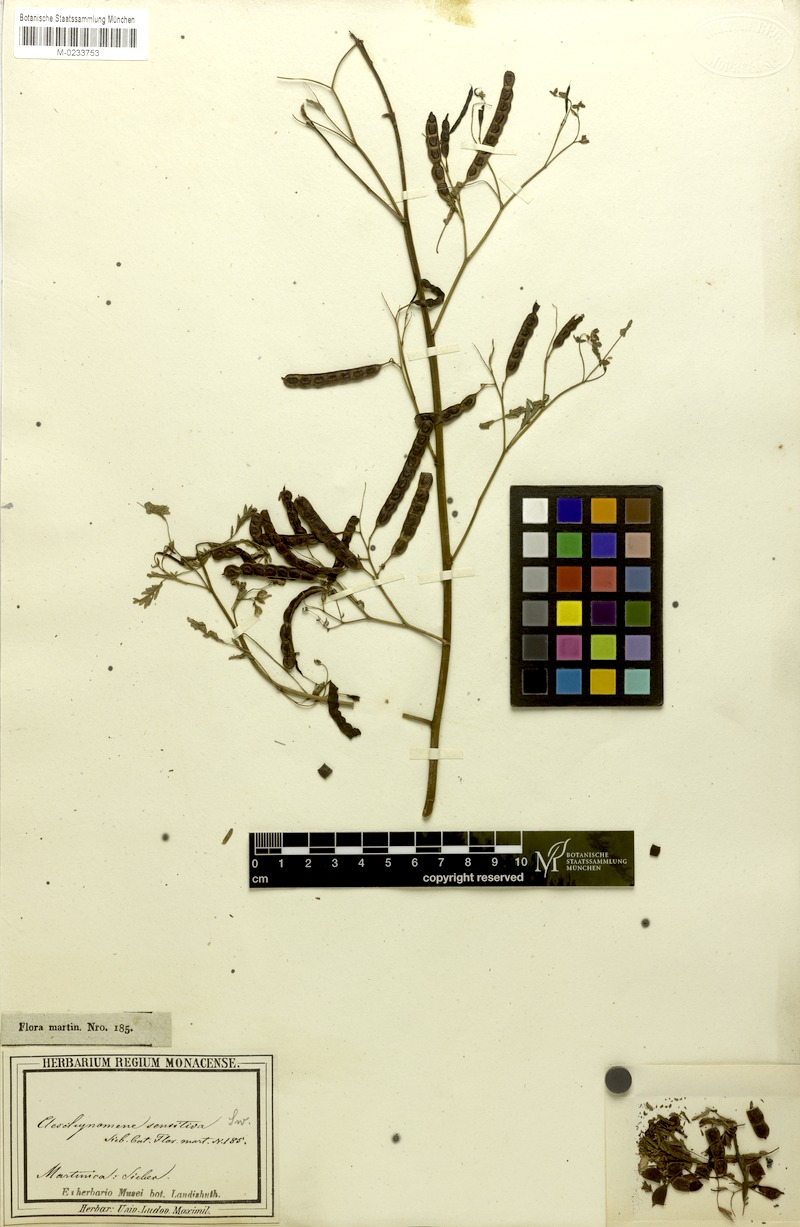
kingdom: Plantae
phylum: Tracheophyta
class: Magnoliopsida
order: Fabales
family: Fabaceae
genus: Aeschynomene
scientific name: Aeschynomene sensitiva
